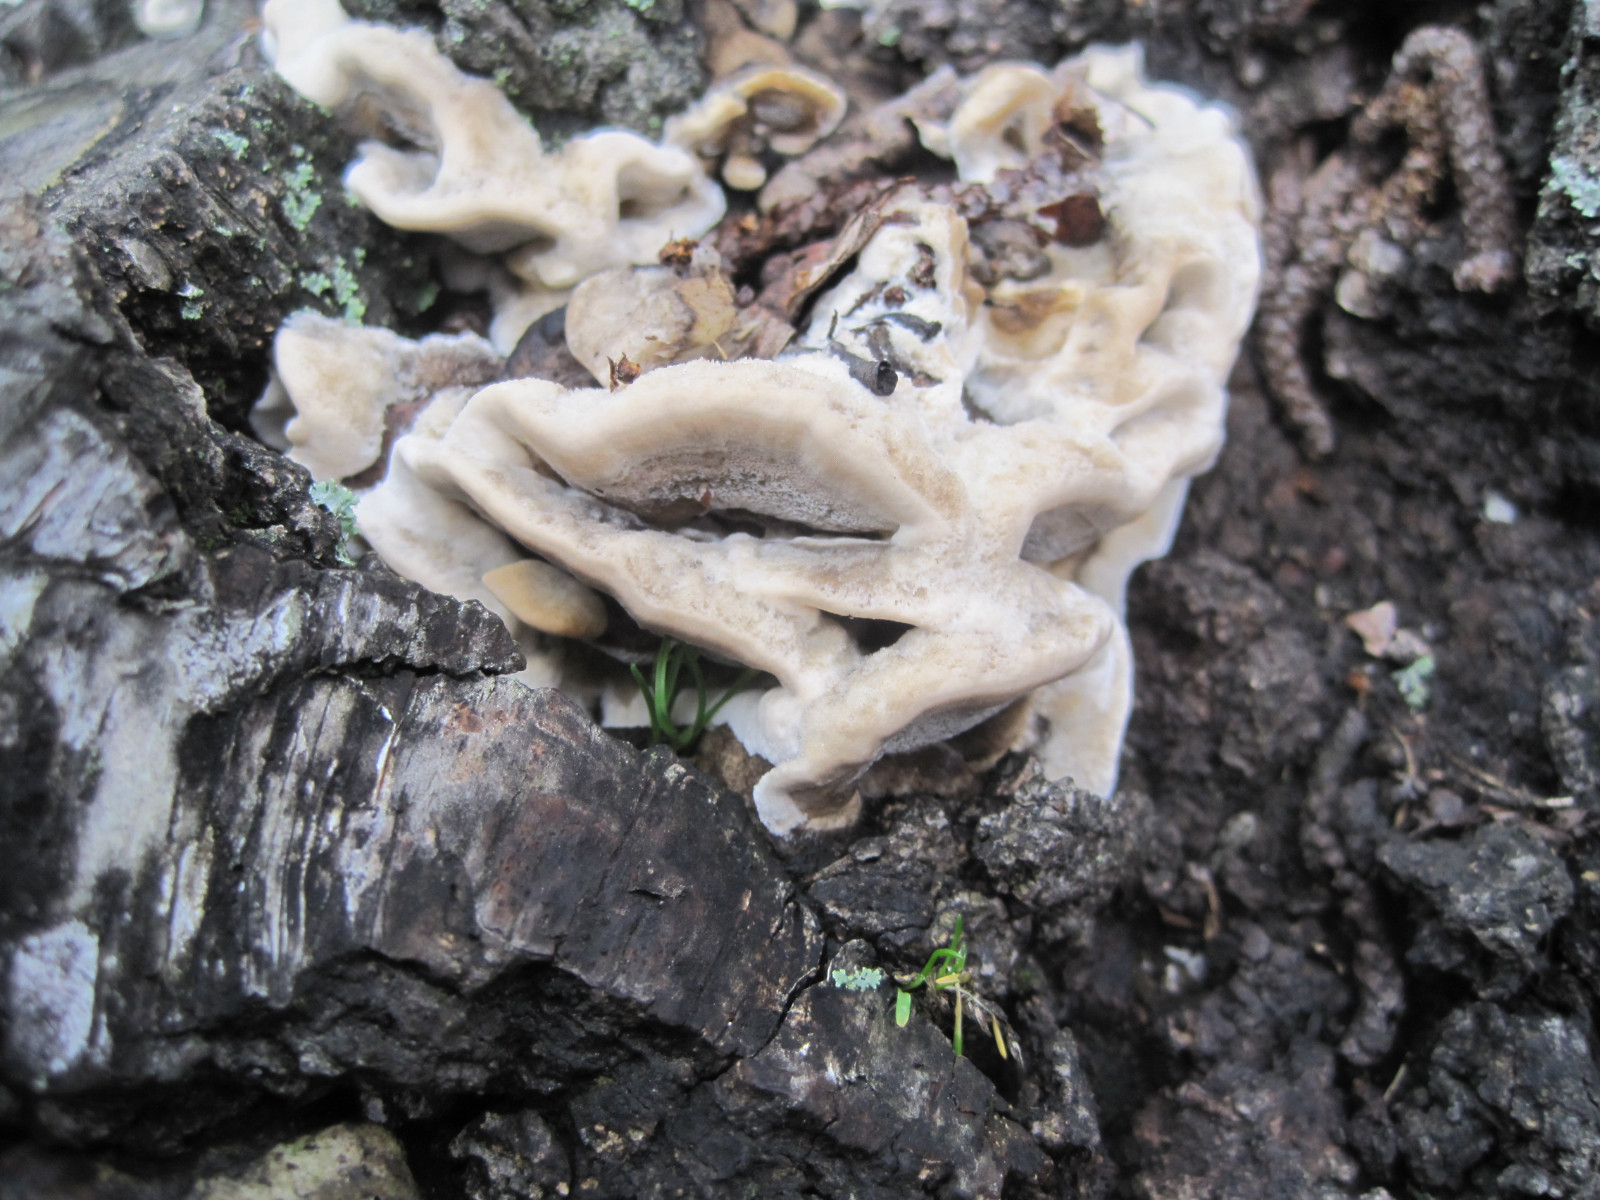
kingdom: Fungi
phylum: Basidiomycota
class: Agaricomycetes
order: Polyporales
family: Phanerochaetaceae
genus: Bjerkandera
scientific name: Bjerkandera adusta
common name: sveden sodporesvamp
